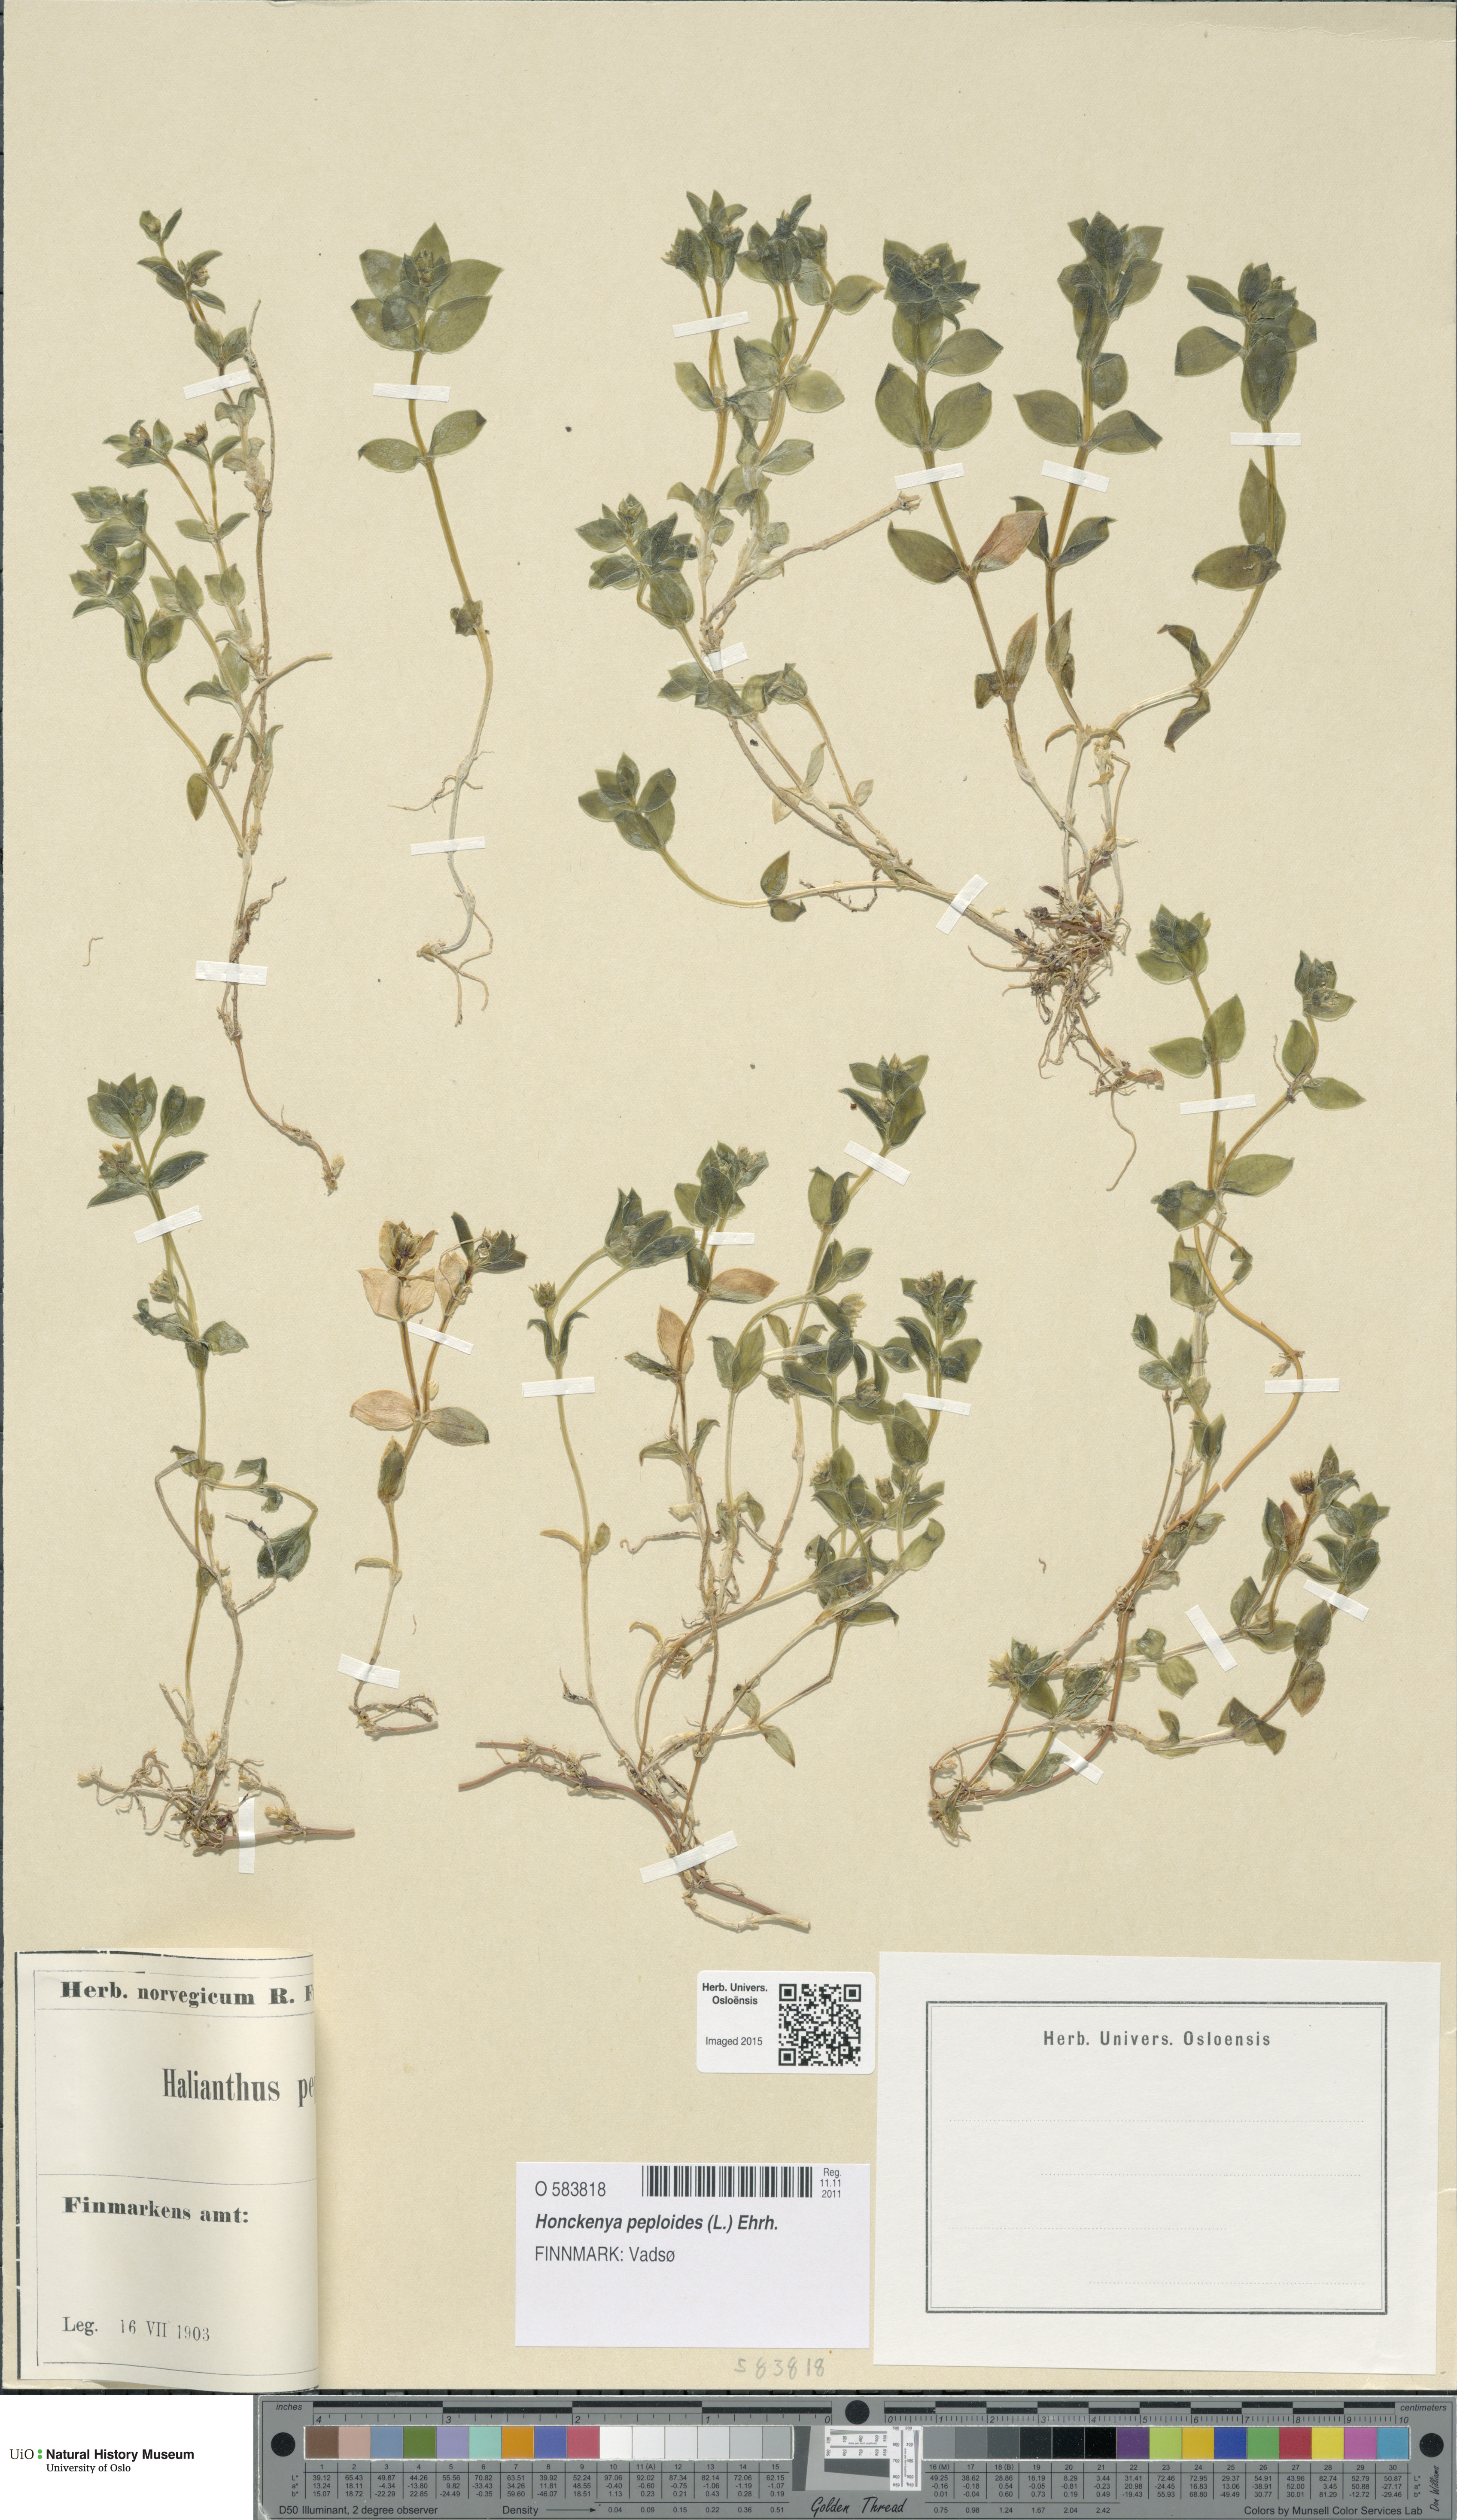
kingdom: Plantae
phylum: Tracheophyta
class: Magnoliopsida
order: Caryophyllales
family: Caryophyllaceae
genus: Honckenya
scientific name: Honckenya peploides
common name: Sea sandwort
